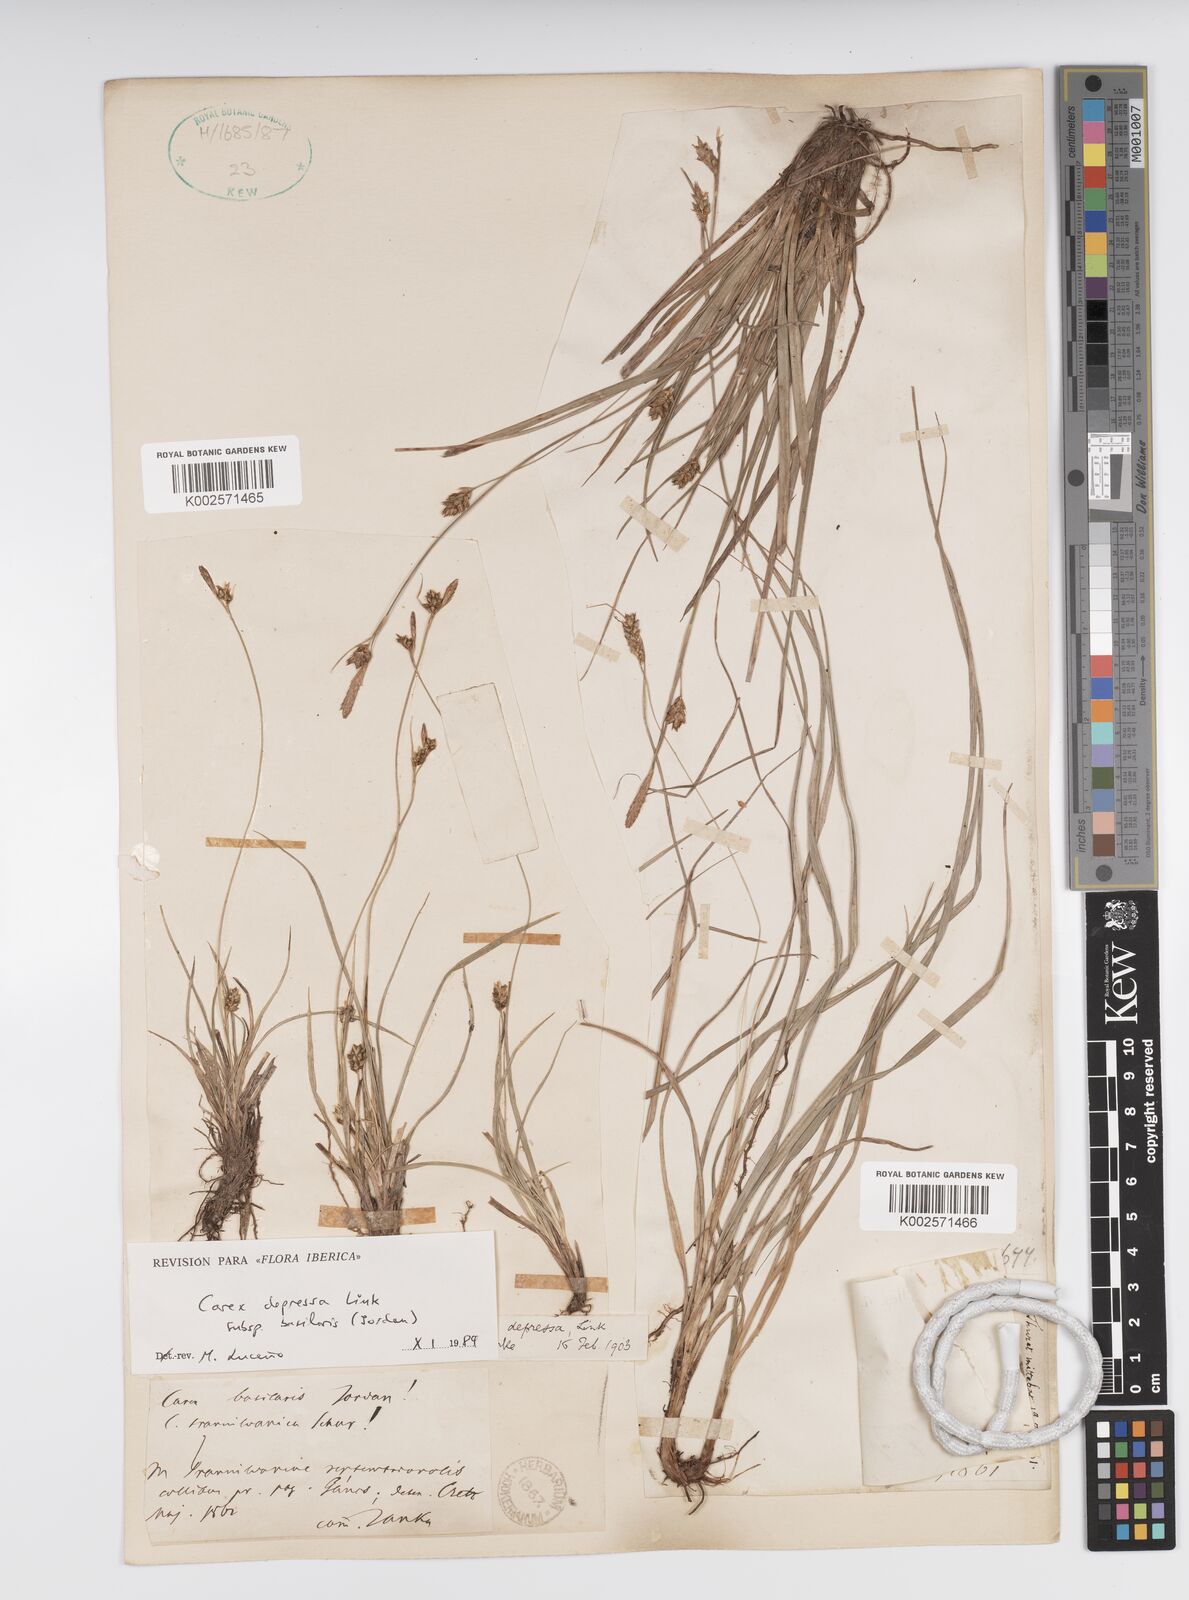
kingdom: Plantae
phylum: Tracheophyta
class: Liliopsida
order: Poales
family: Cyperaceae
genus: Carex
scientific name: Carex depressa
